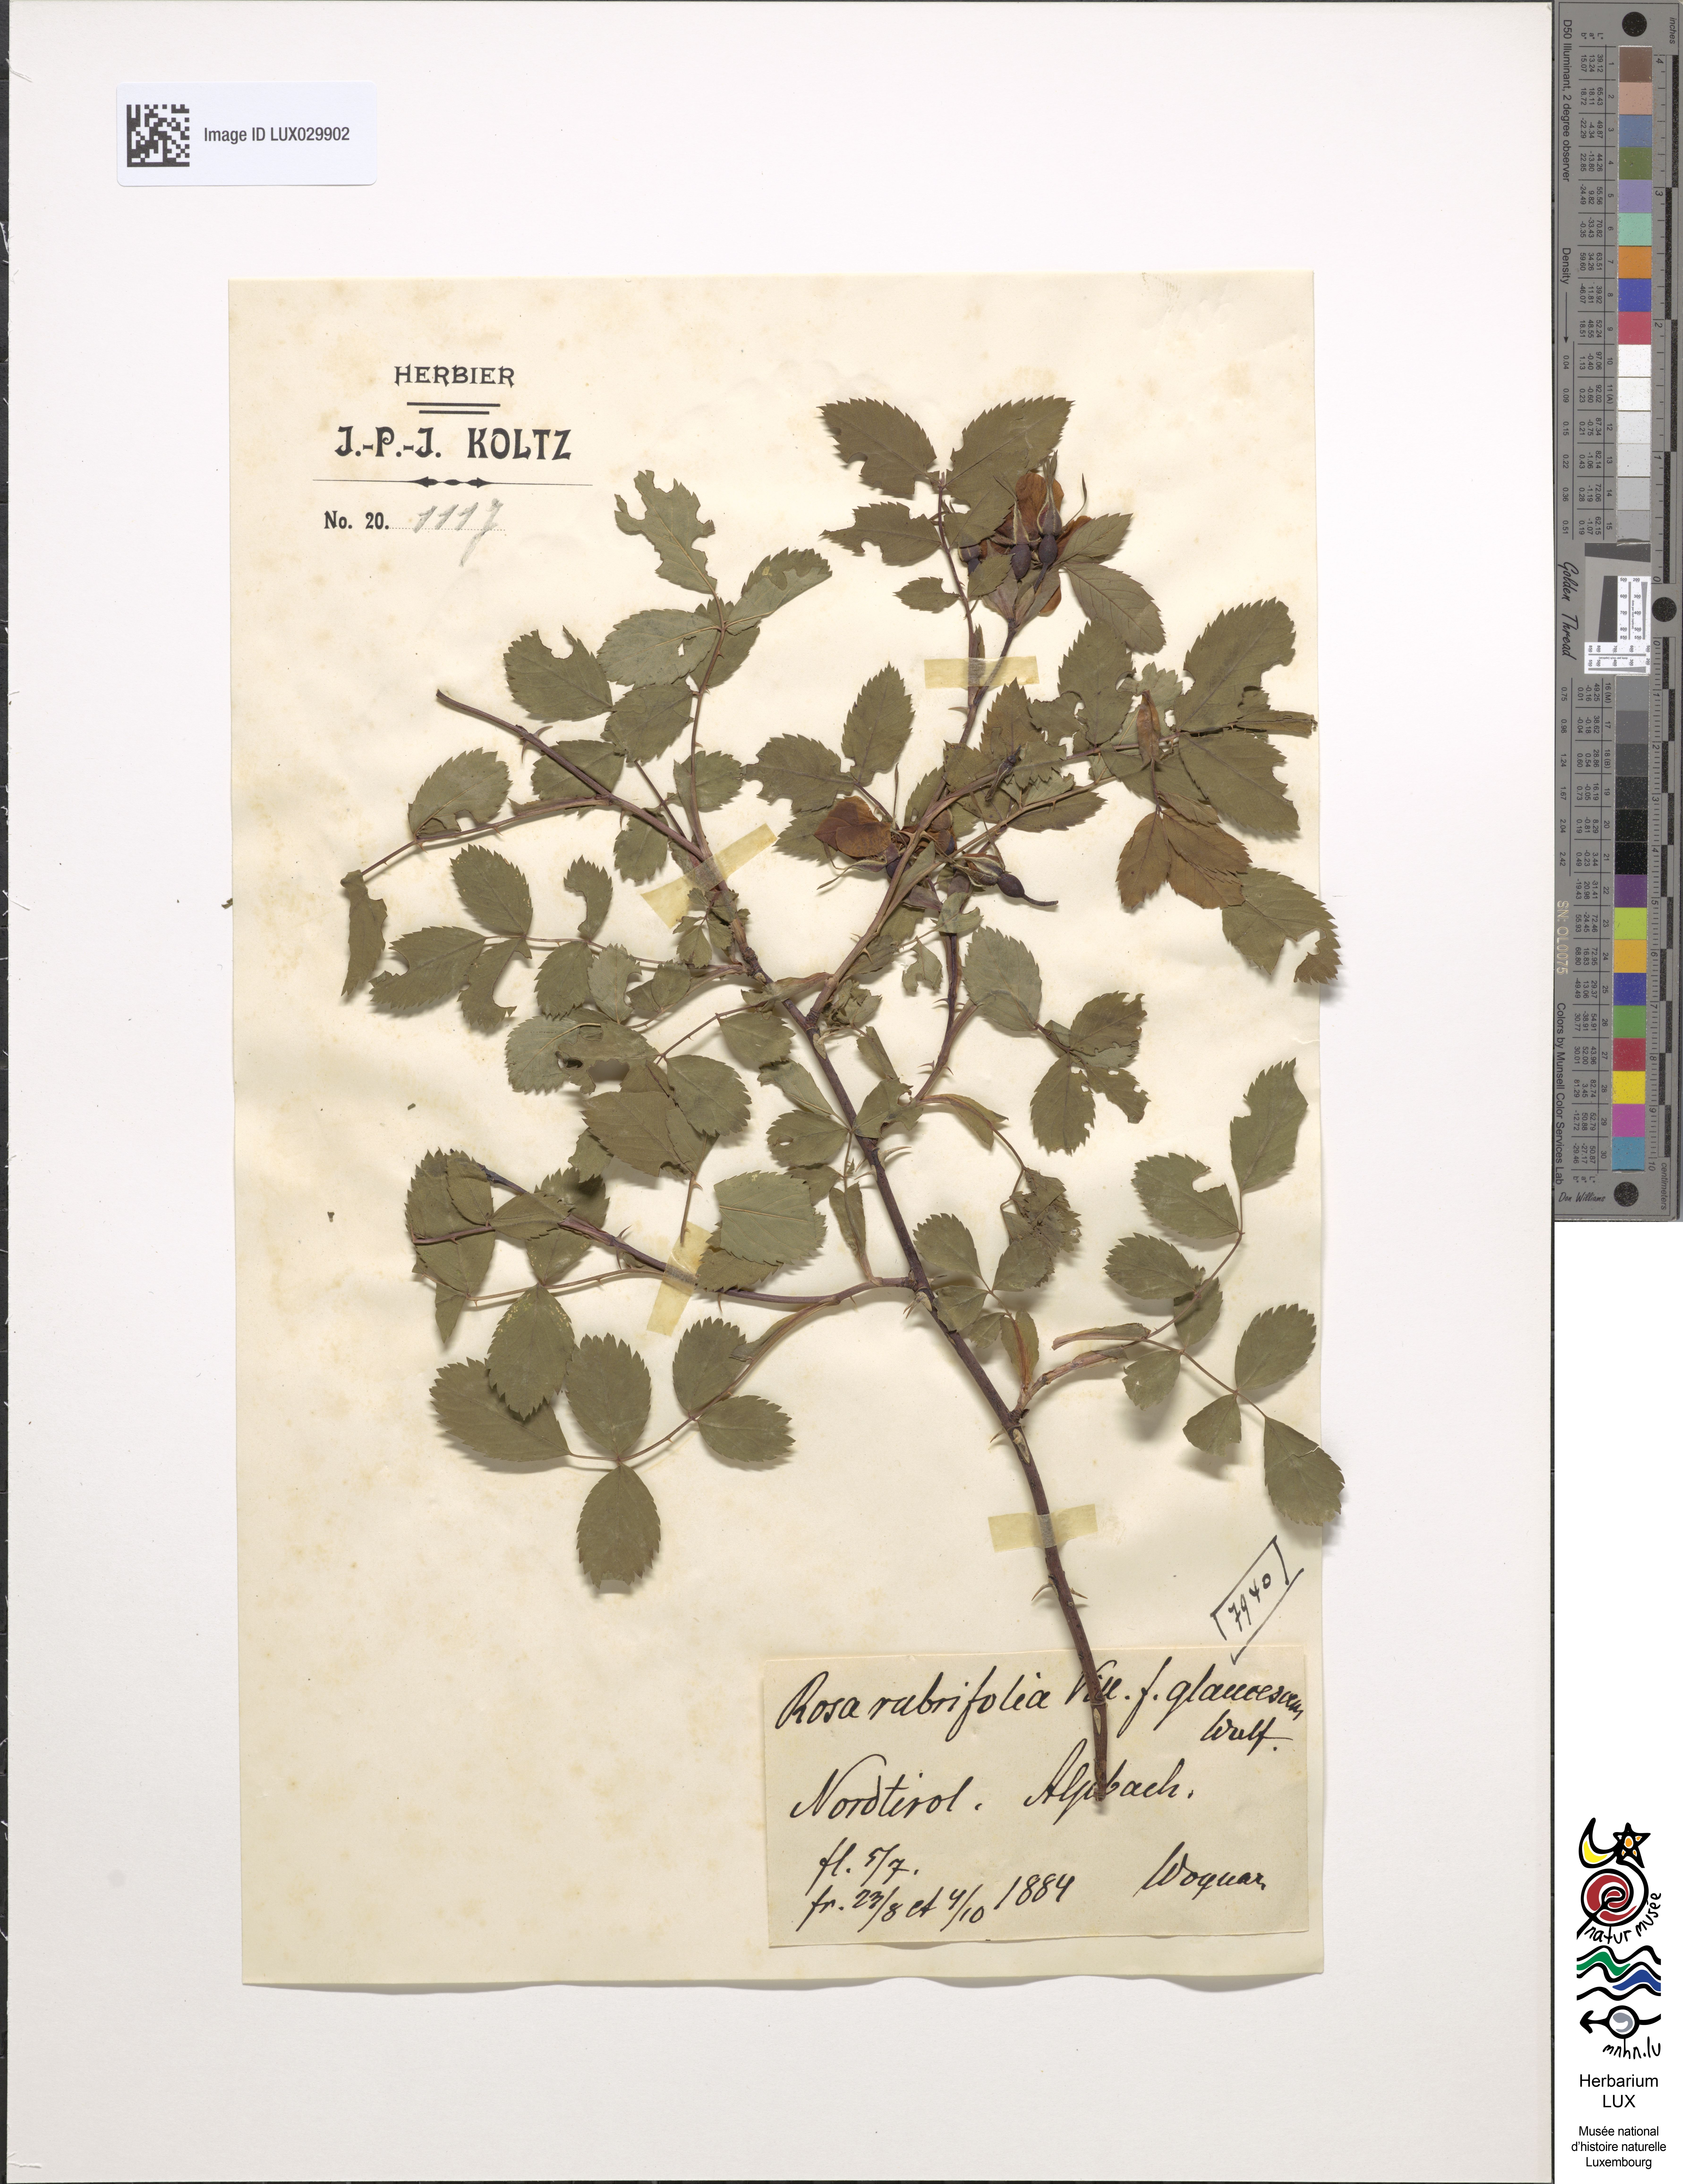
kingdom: Plantae
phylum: Tracheophyta
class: Magnoliopsida
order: Rosales
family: Rosaceae
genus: Rosa
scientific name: Rosa glauca
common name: Redleaf rose
